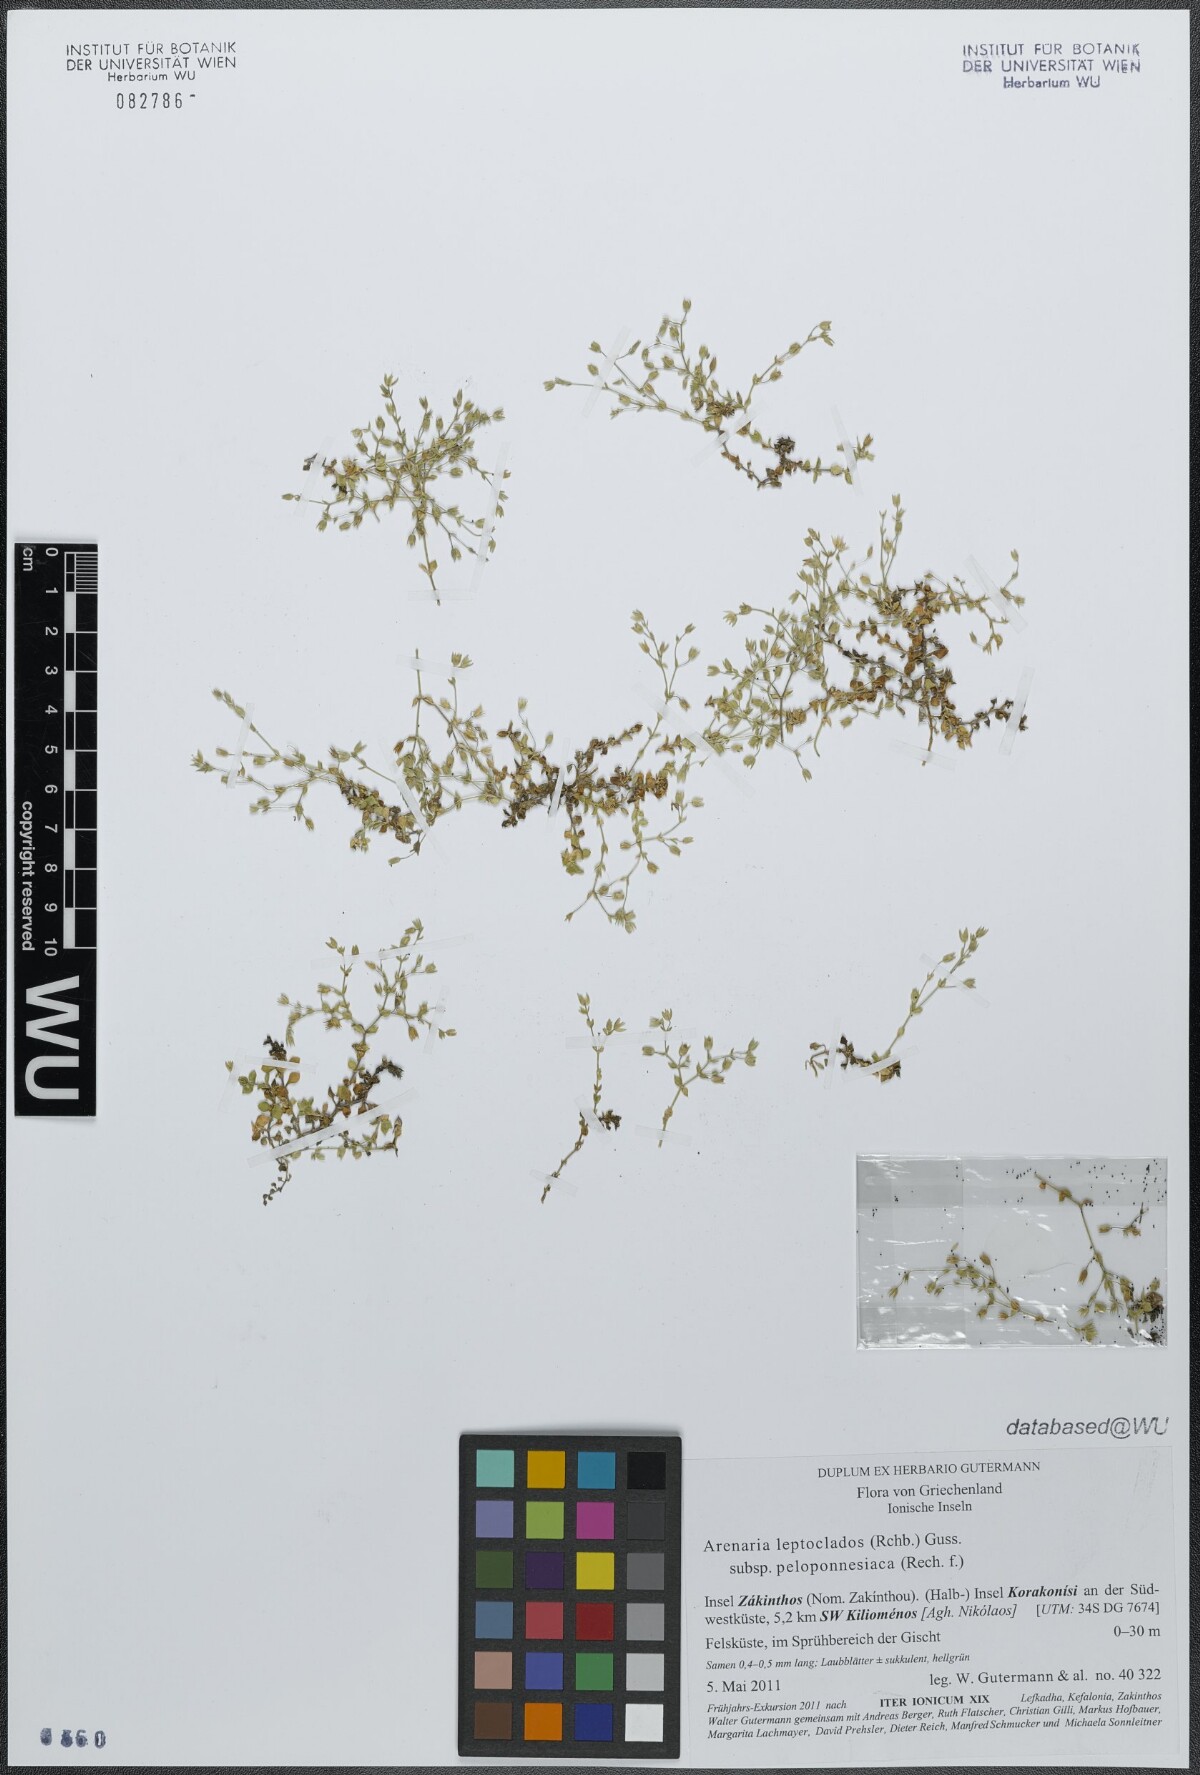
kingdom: Plantae
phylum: Tracheophyta
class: Magnoliopsida
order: Caryophyllales
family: Caryophyllaceae
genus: Arenaria
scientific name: Arenaria leptoclados
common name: Thyme-leaved sandwort
